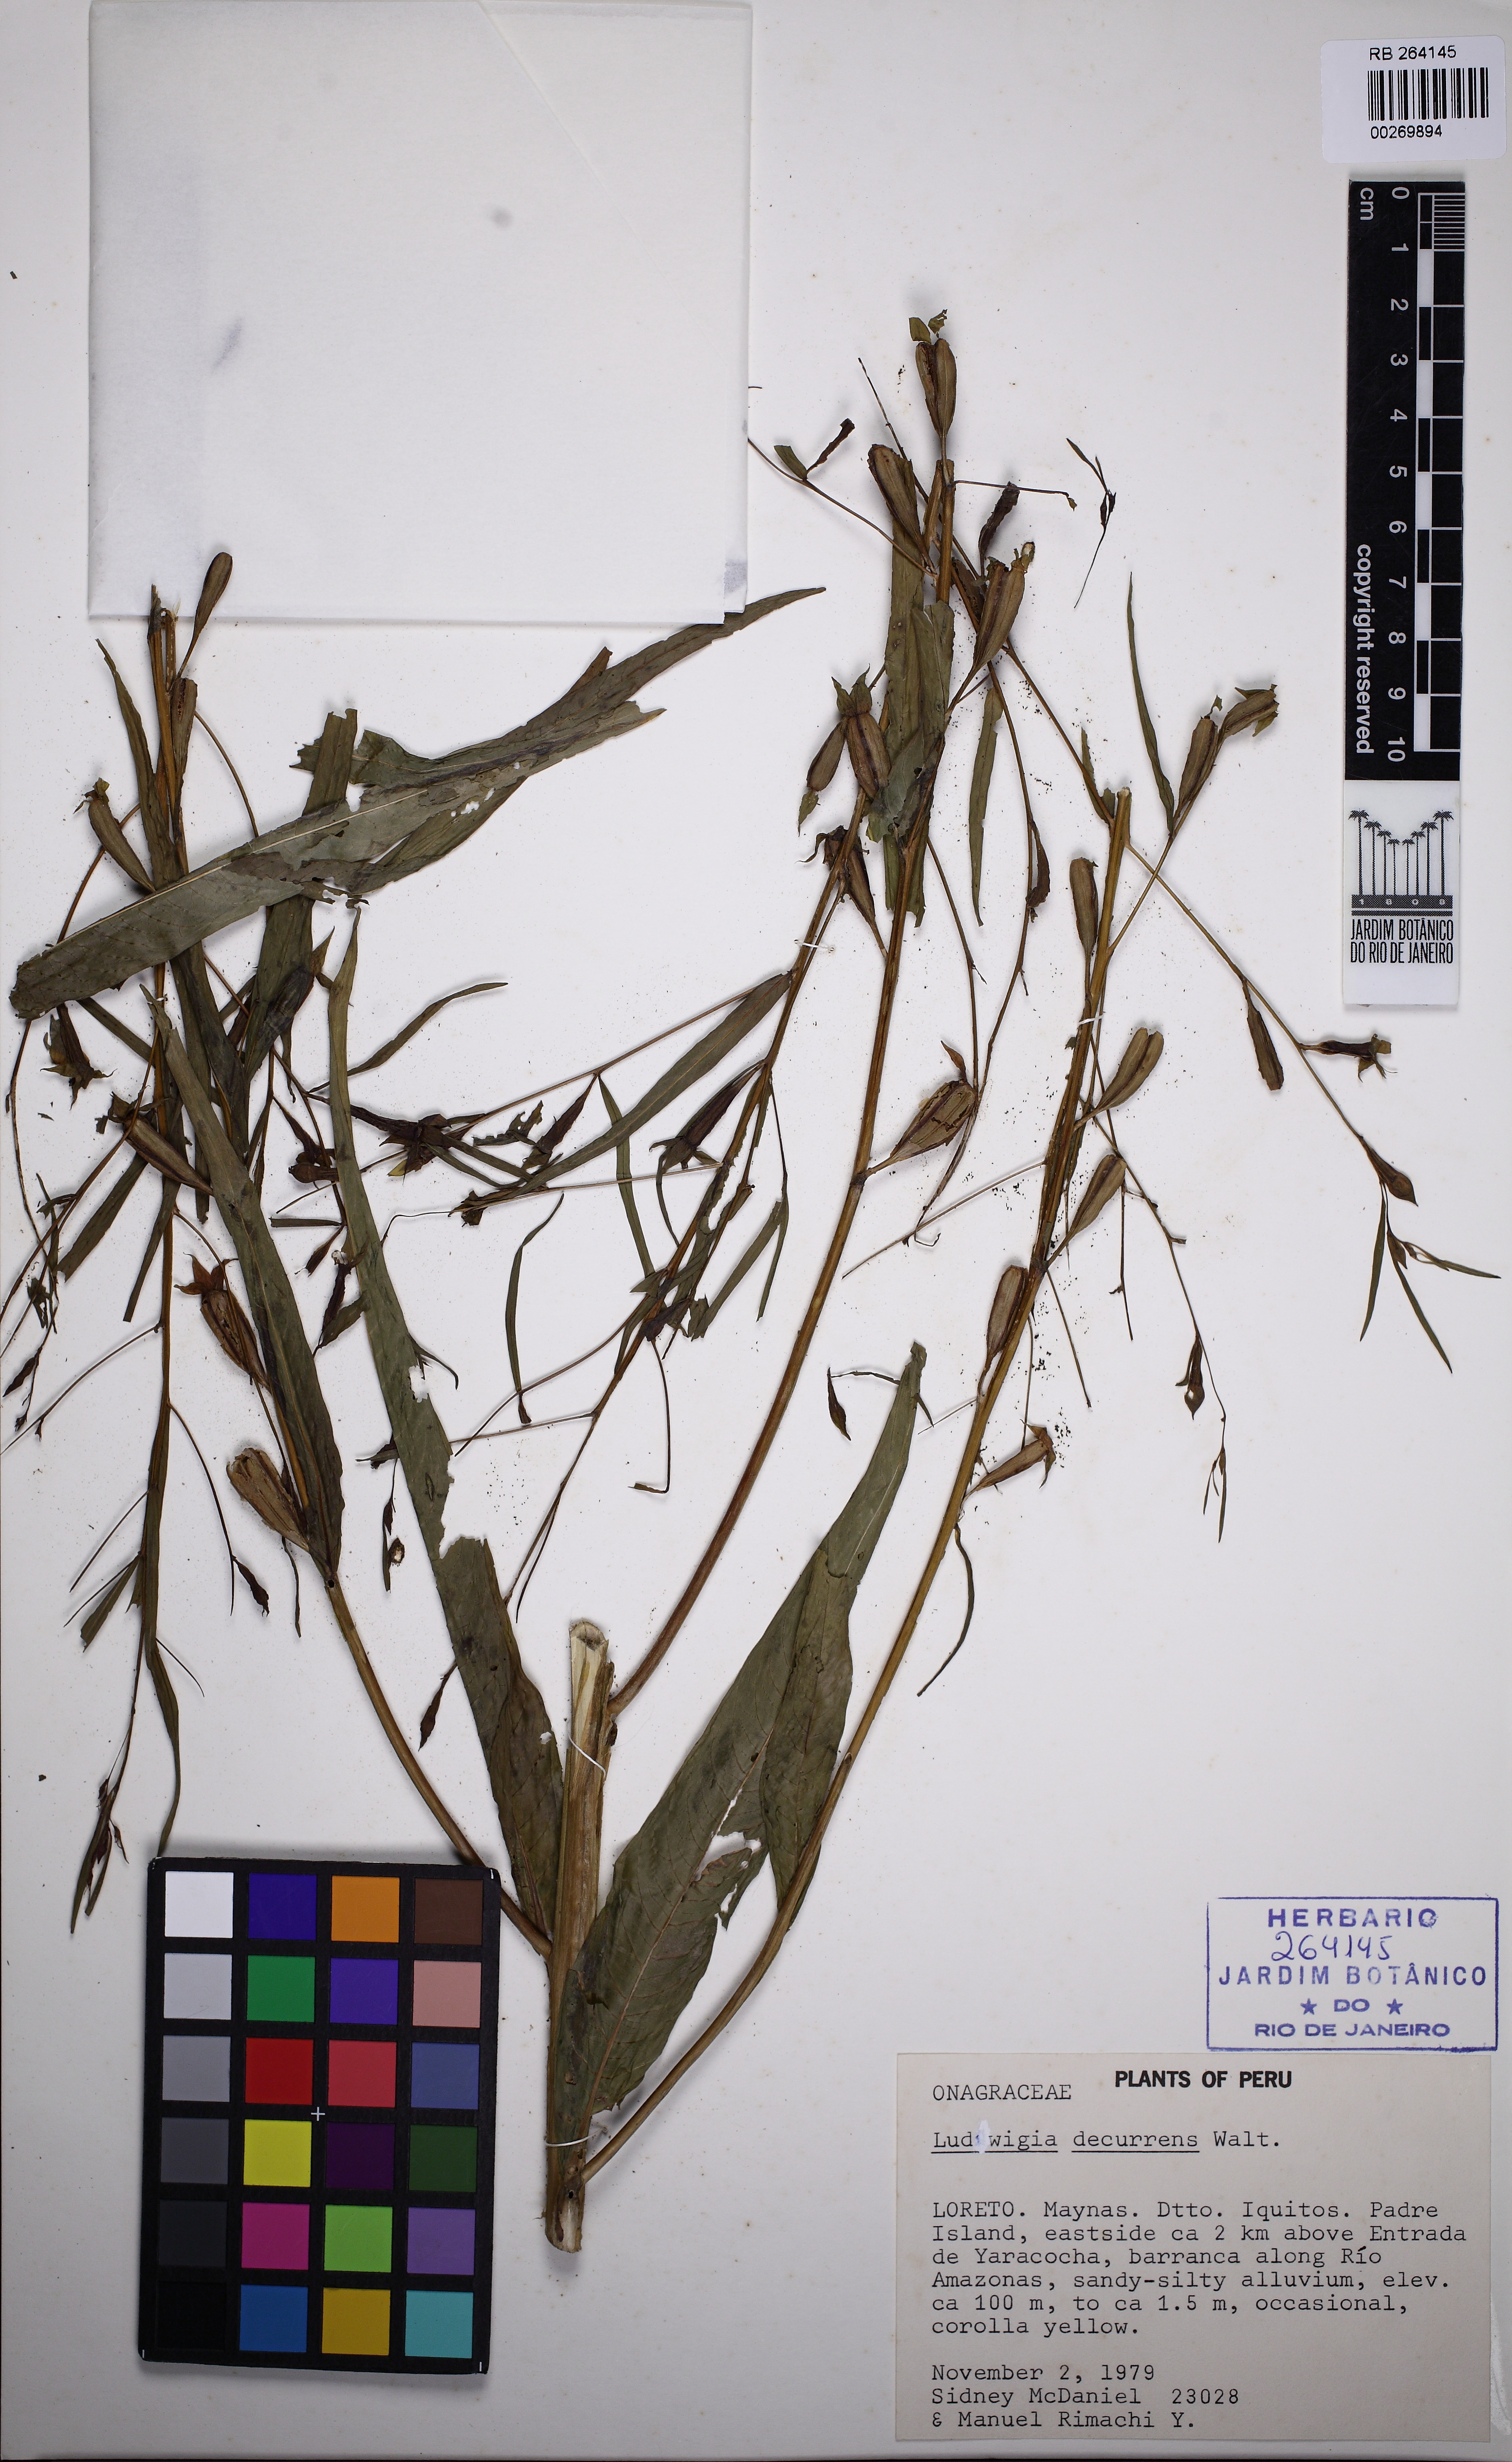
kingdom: Plantae
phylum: Tracheophyta
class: Magnoliopsida
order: Myrtales
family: Onagraceae
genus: Ludwigia
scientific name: Ludwigia decurrens
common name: Winged water-primrose
